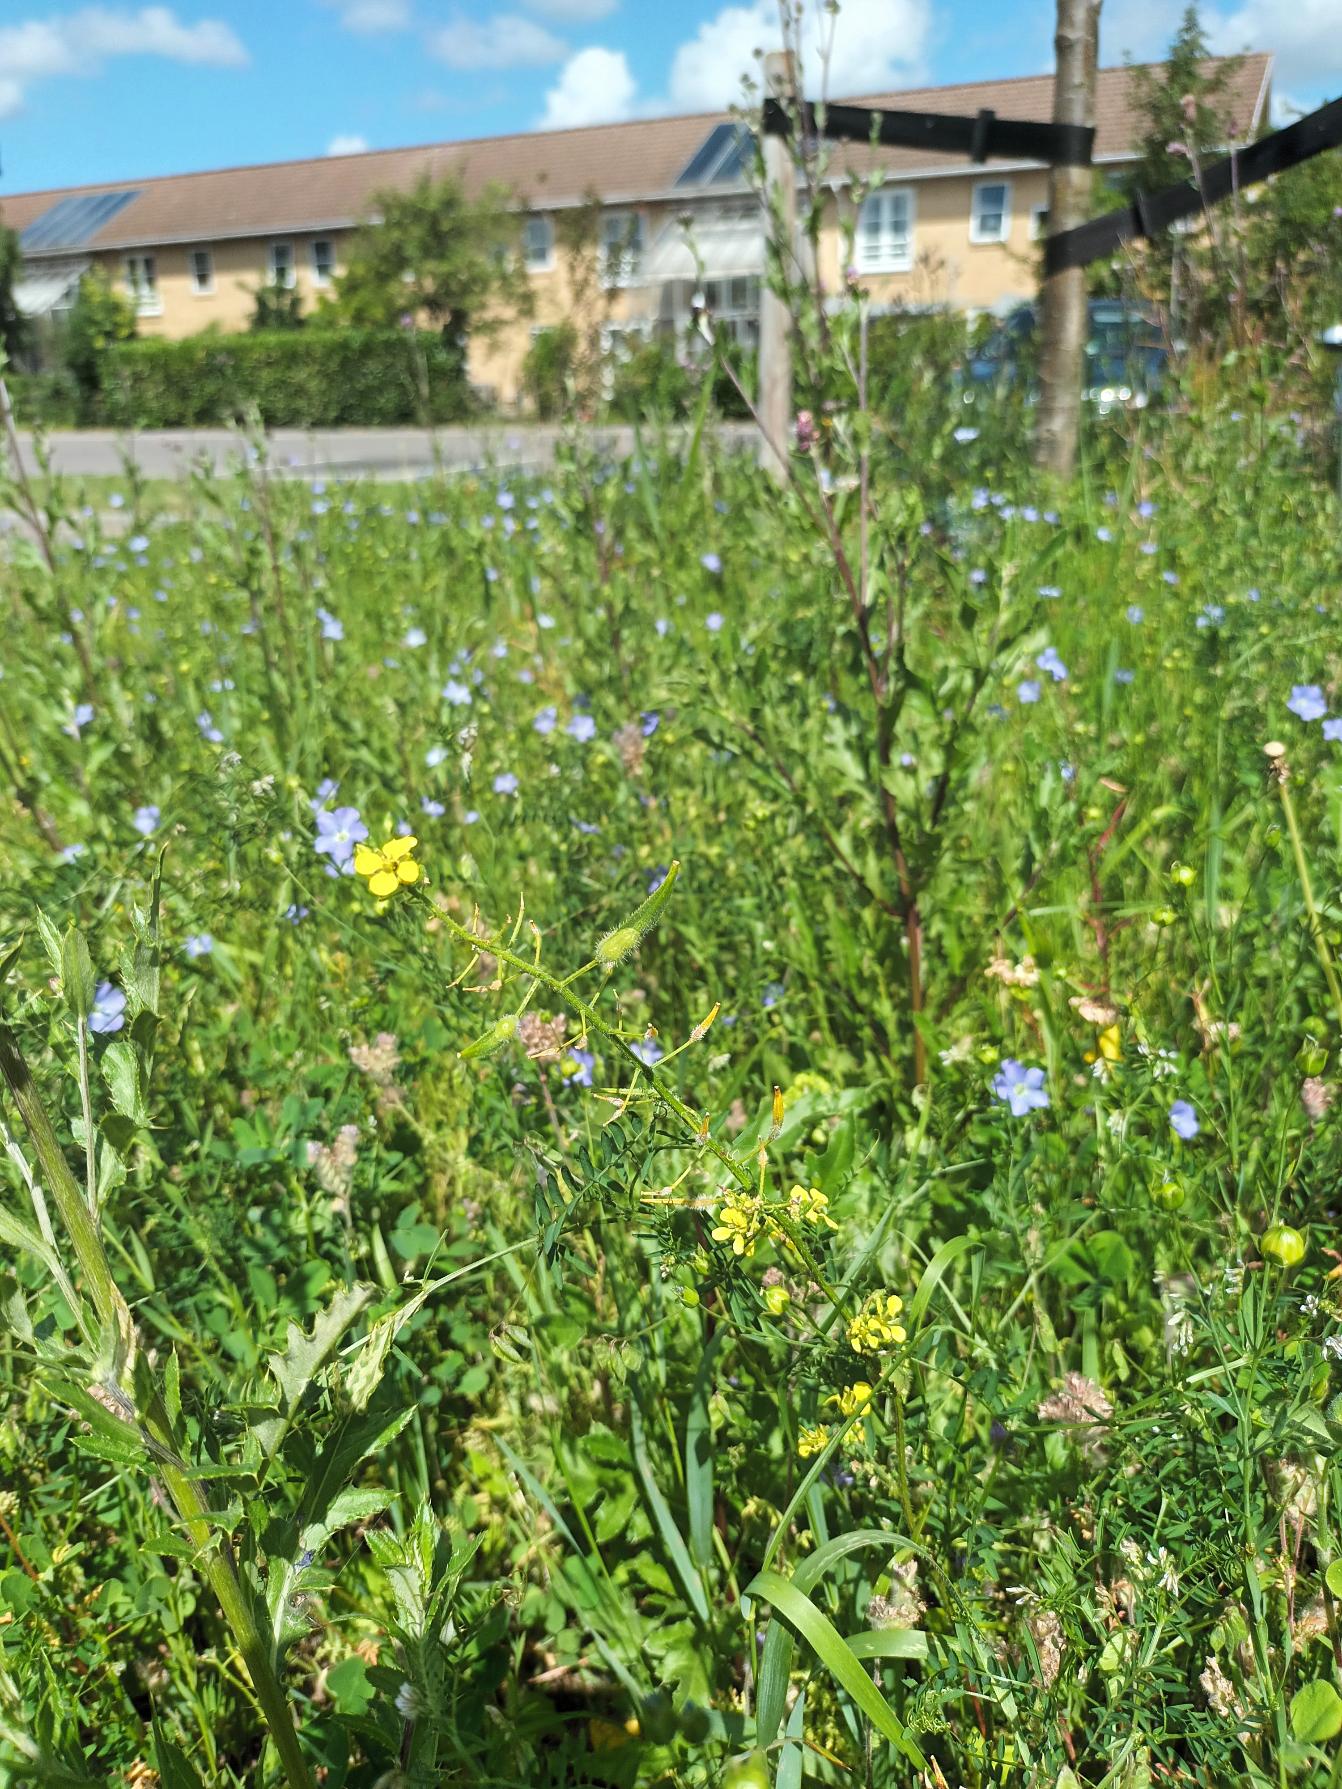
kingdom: Plantae
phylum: Tracheophyta
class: Magnoliopsida
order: Brassicales
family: Brassicaceae
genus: Sinapis
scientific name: Sinapis alba
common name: Gul sennep
